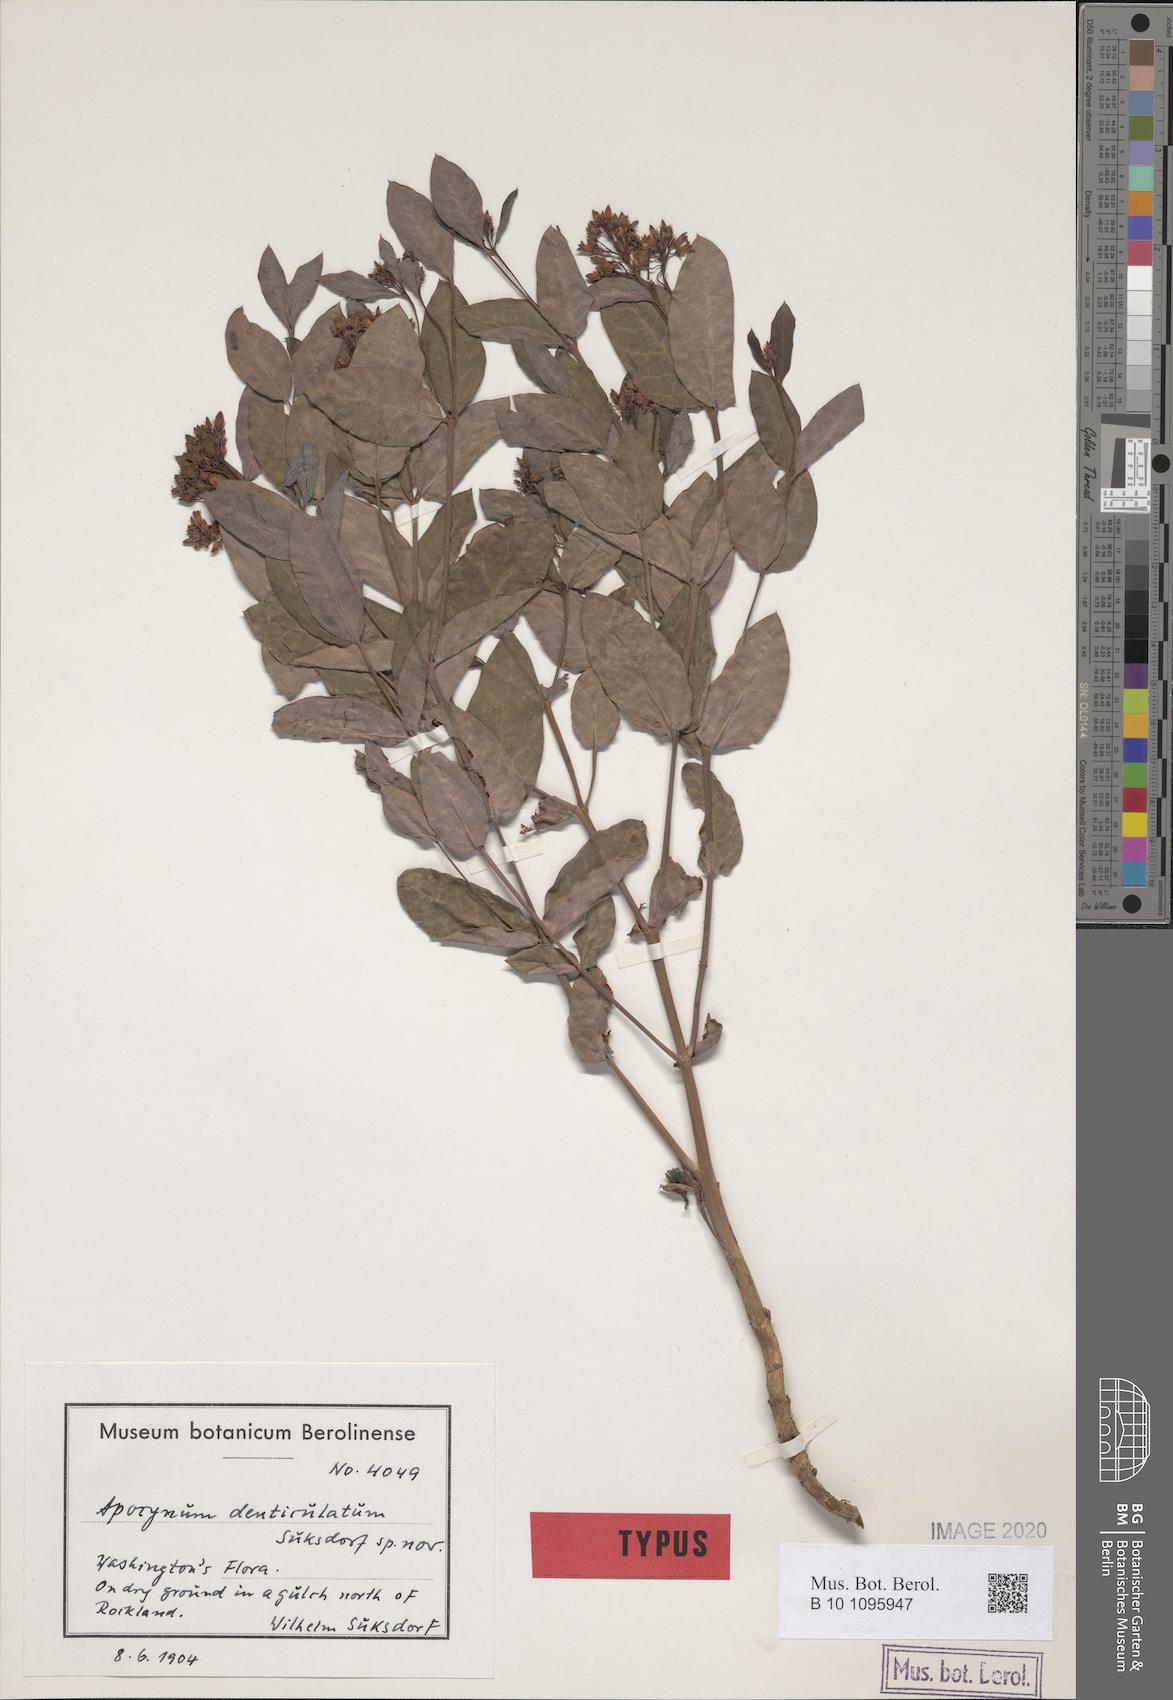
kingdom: Plantae
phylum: Tracheophyta
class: Magnoliopsida
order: Gentianales
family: Apocynaceae
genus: Apocynum
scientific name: Apocynum floribundum
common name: Hybrid dogbane
